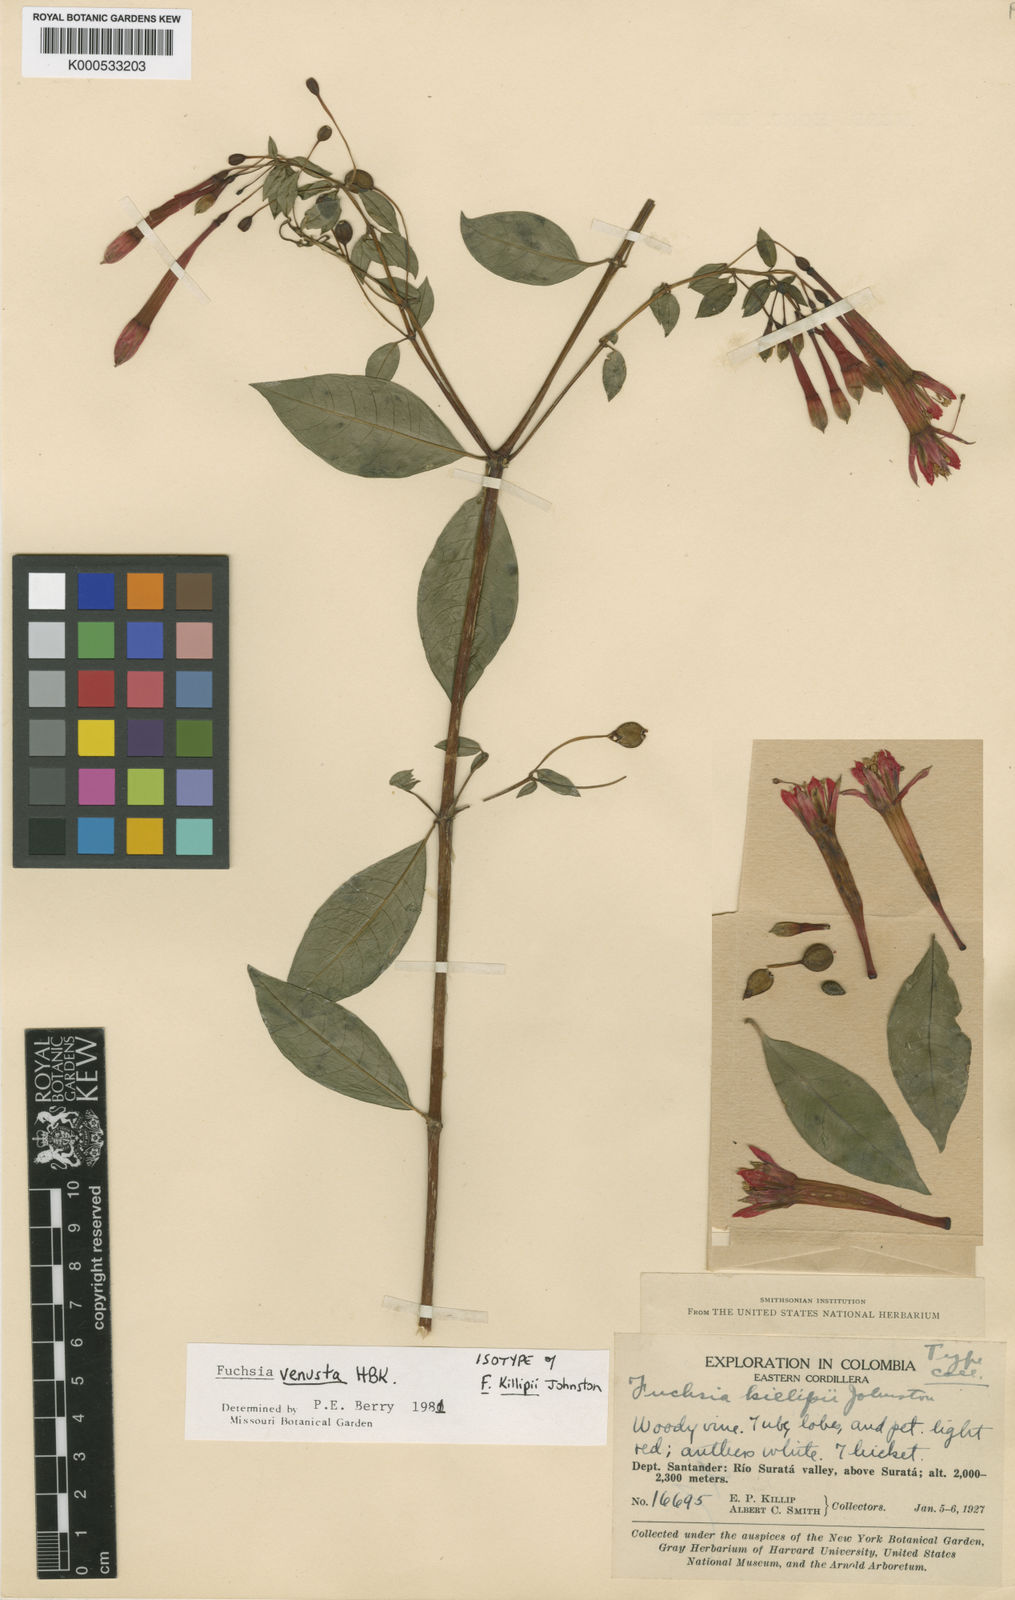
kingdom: Plantae
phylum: Tracheophyta
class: Magnoliopsida
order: Myrtales
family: Onagraceae
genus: Fuchsia
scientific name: Fuchsia venusta
